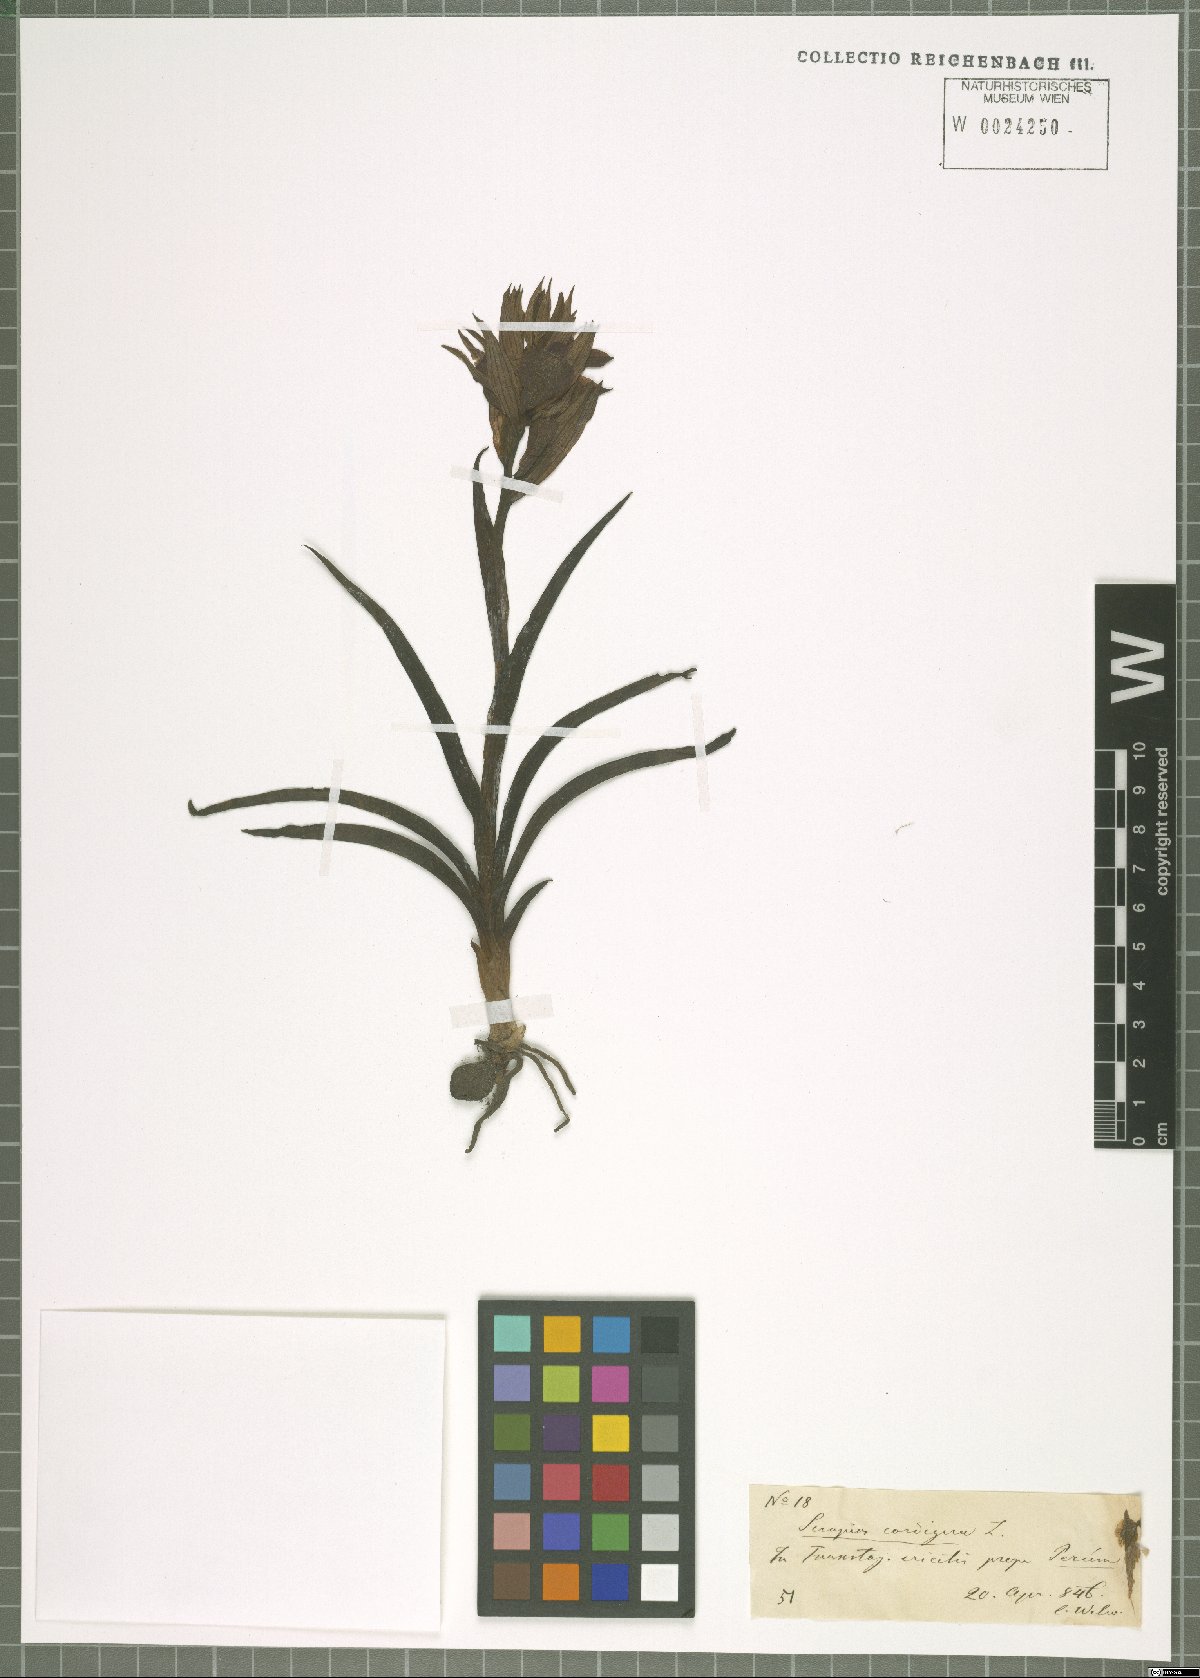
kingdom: Plantae
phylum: Tracheophyta
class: Liliopsida
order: Asparagales
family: Orchidaceae
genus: Serapias
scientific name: Serapias cordigera
